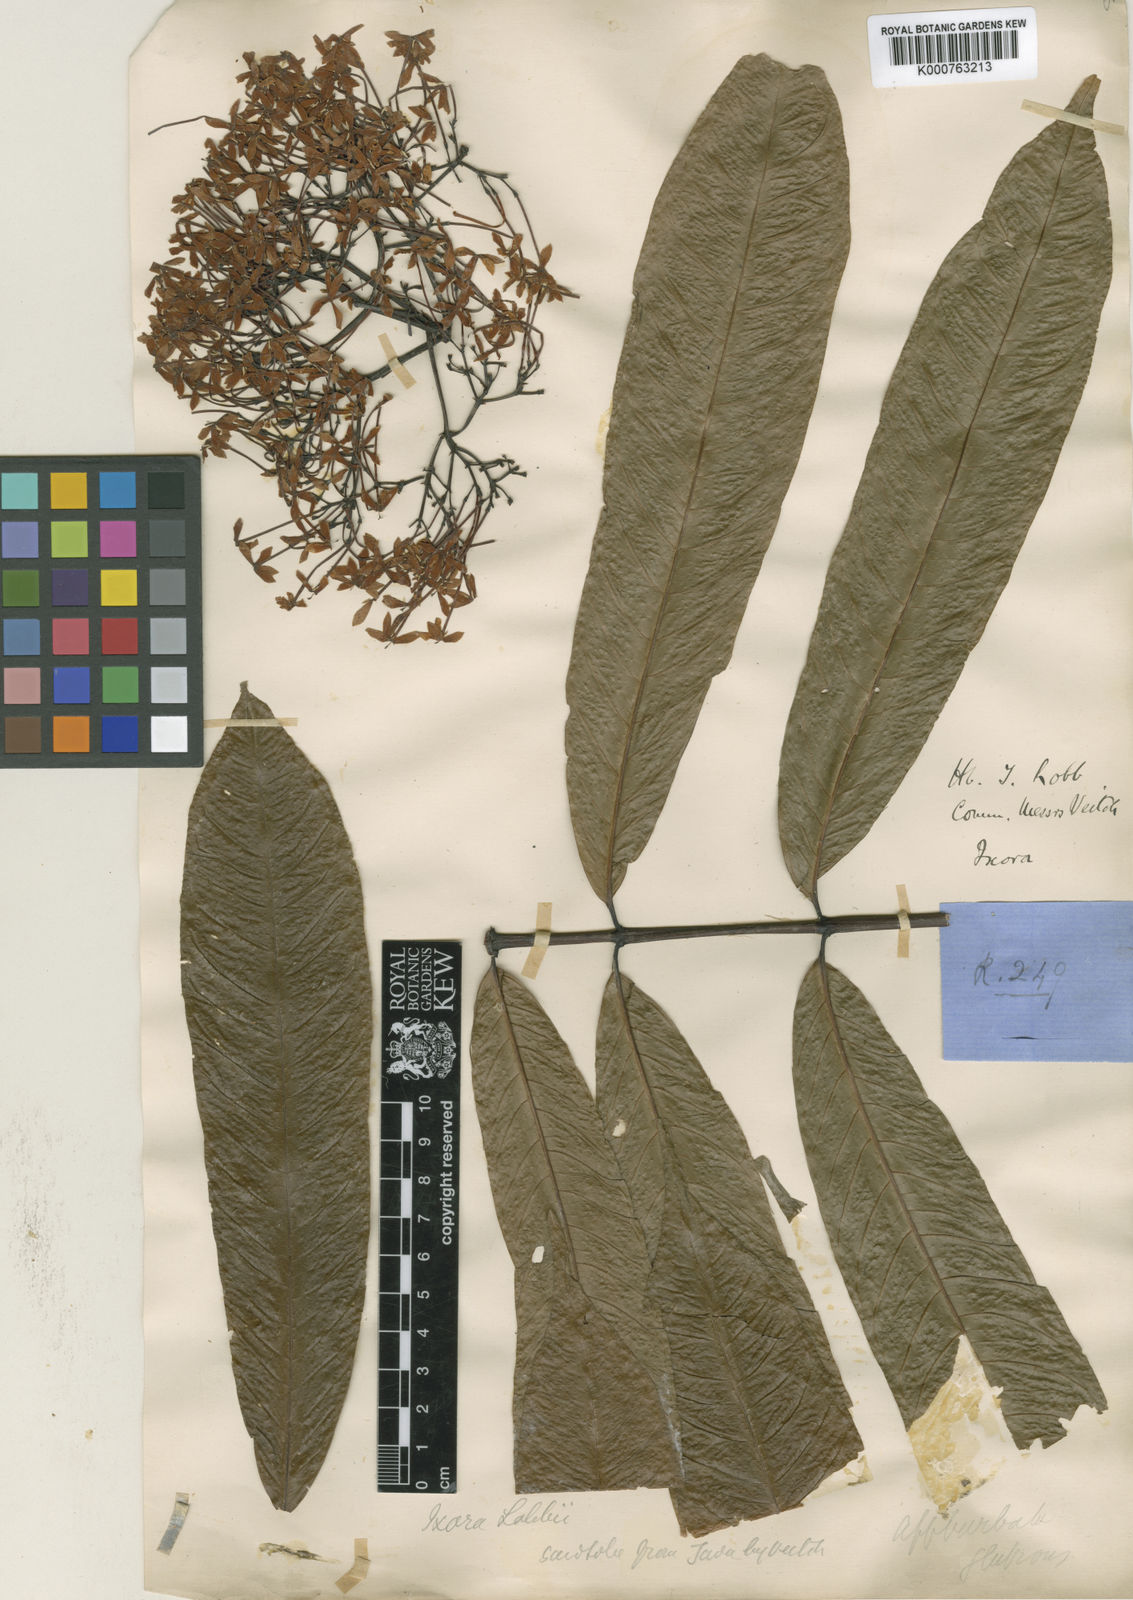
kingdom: Plantae
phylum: Tracheophyta
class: Magnoliopsida
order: Gentianales
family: Rubiaceae
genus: Ixora
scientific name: Ixora
